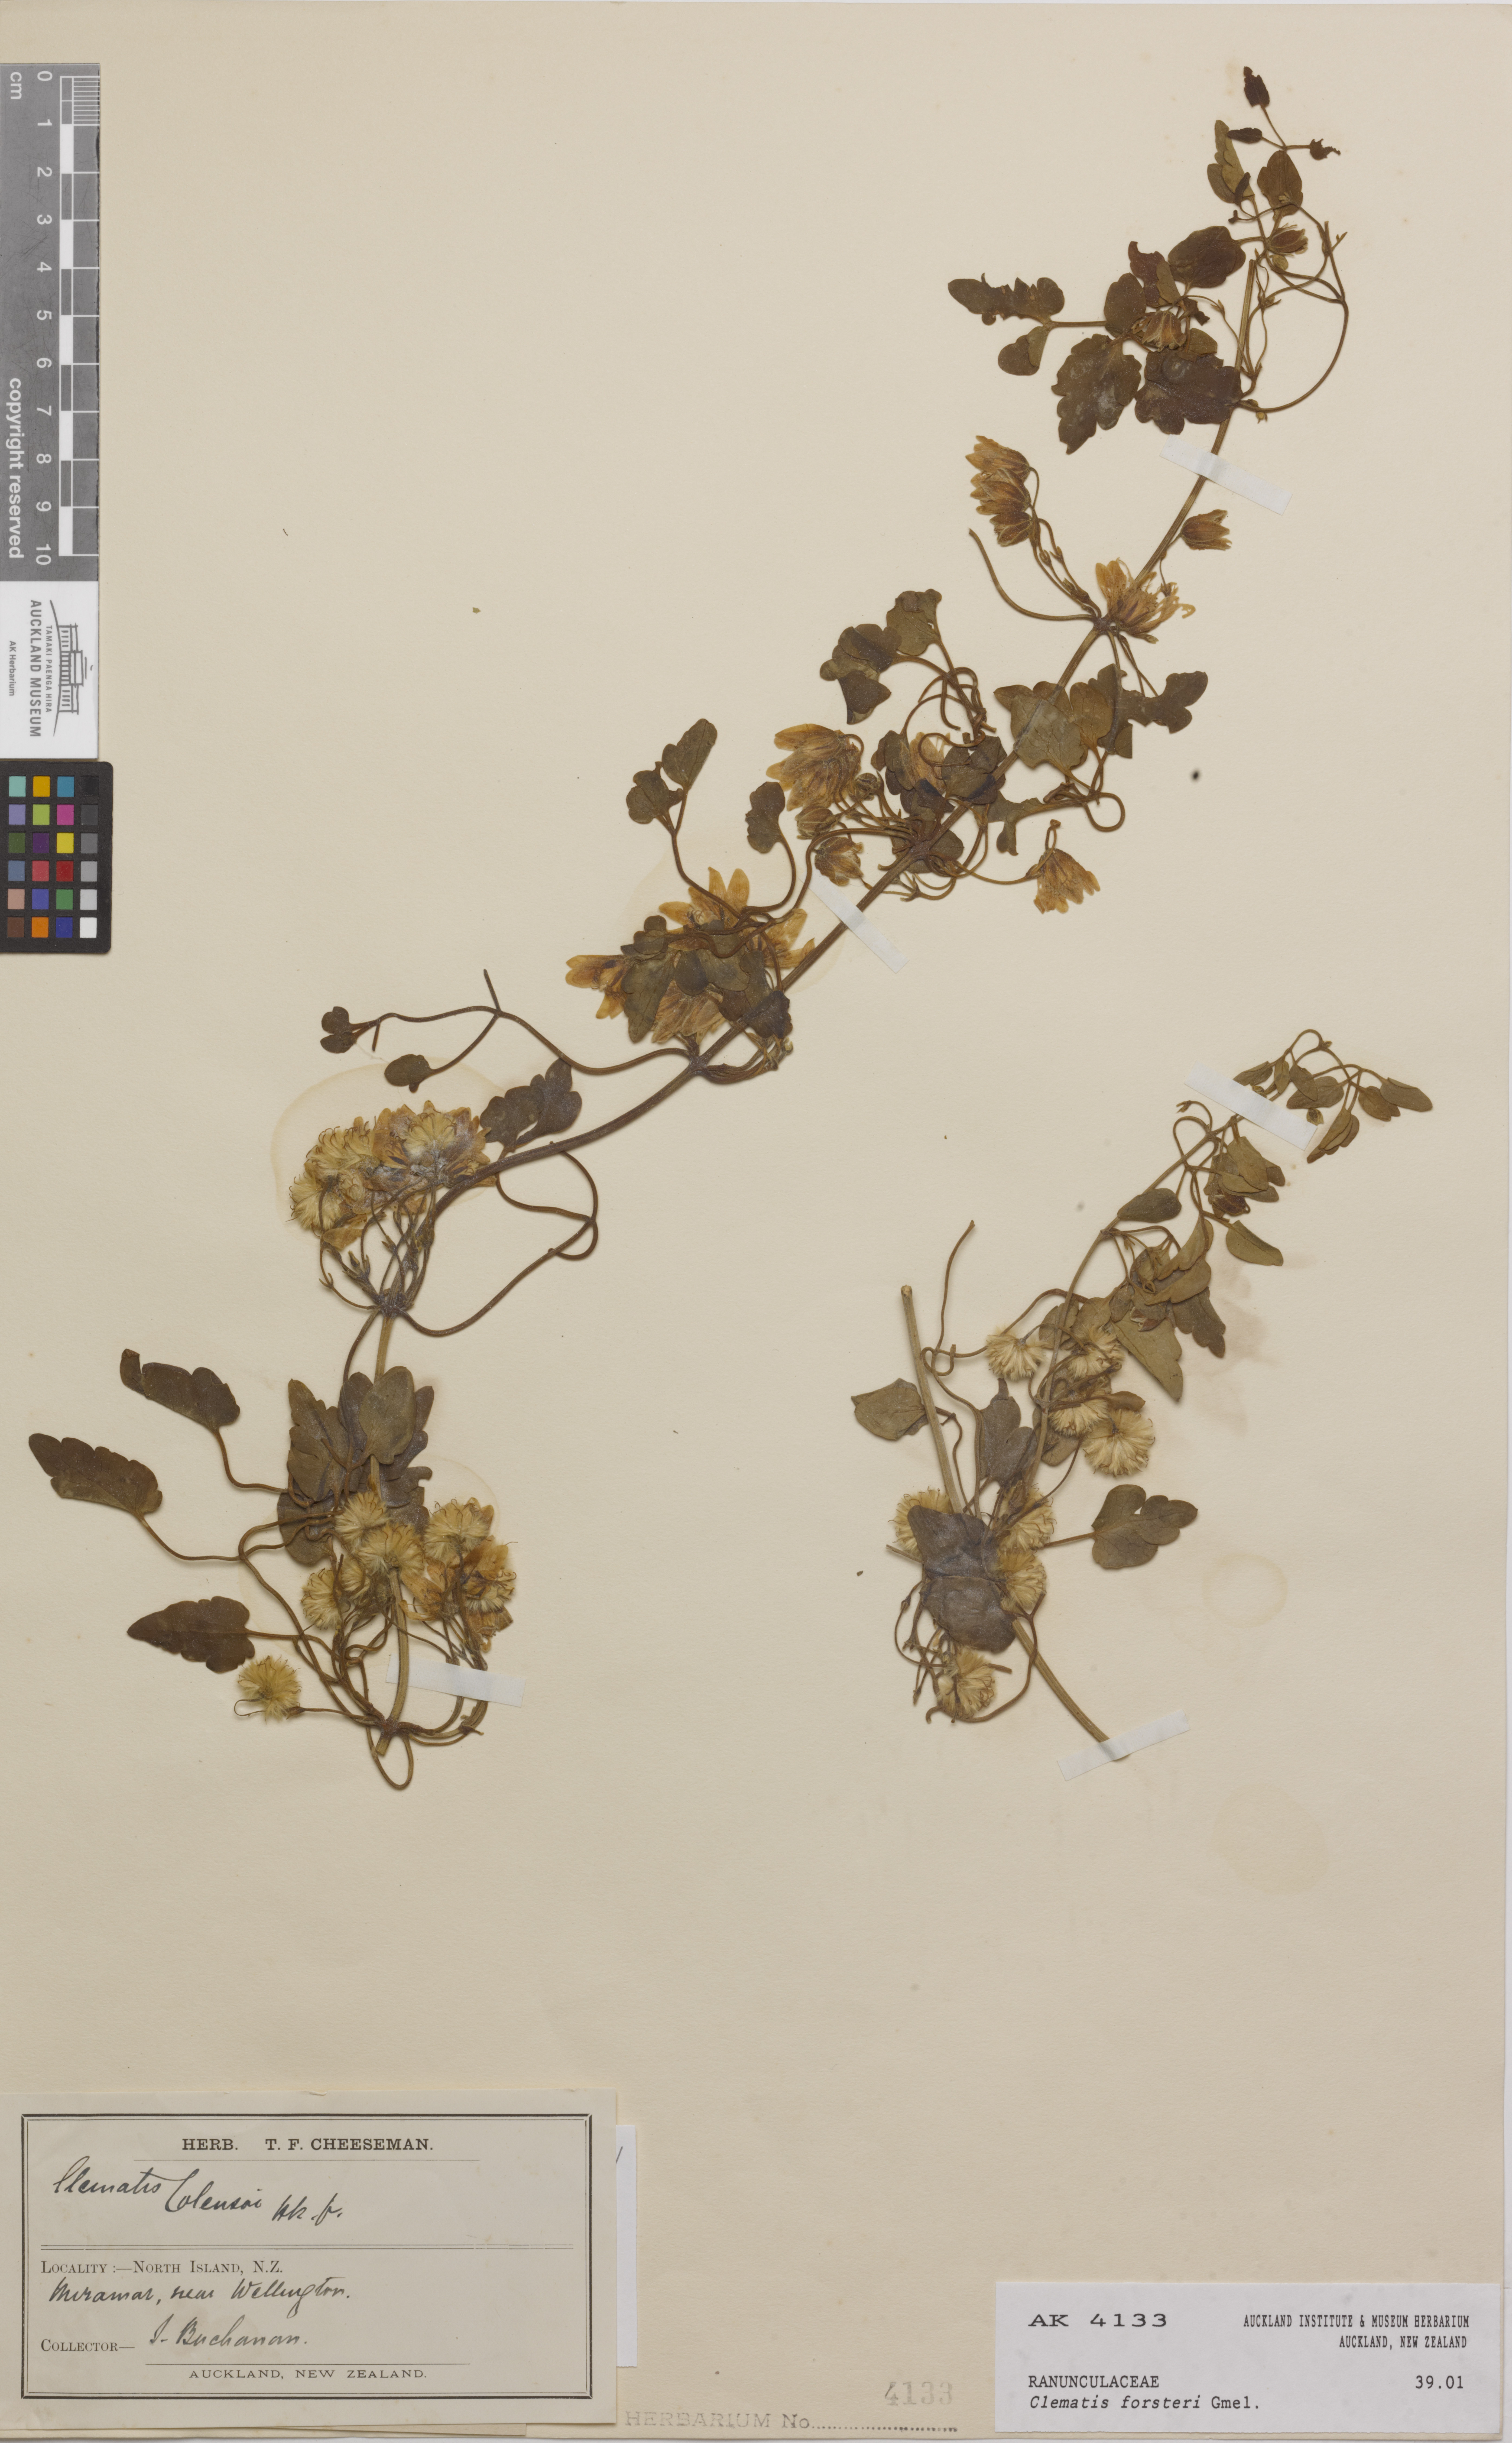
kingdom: Plantae
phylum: Tracheophyta
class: Magnoliopsida
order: Ranunculales
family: Ranunculaceae
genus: Clematis
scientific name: Clematis forsteri
